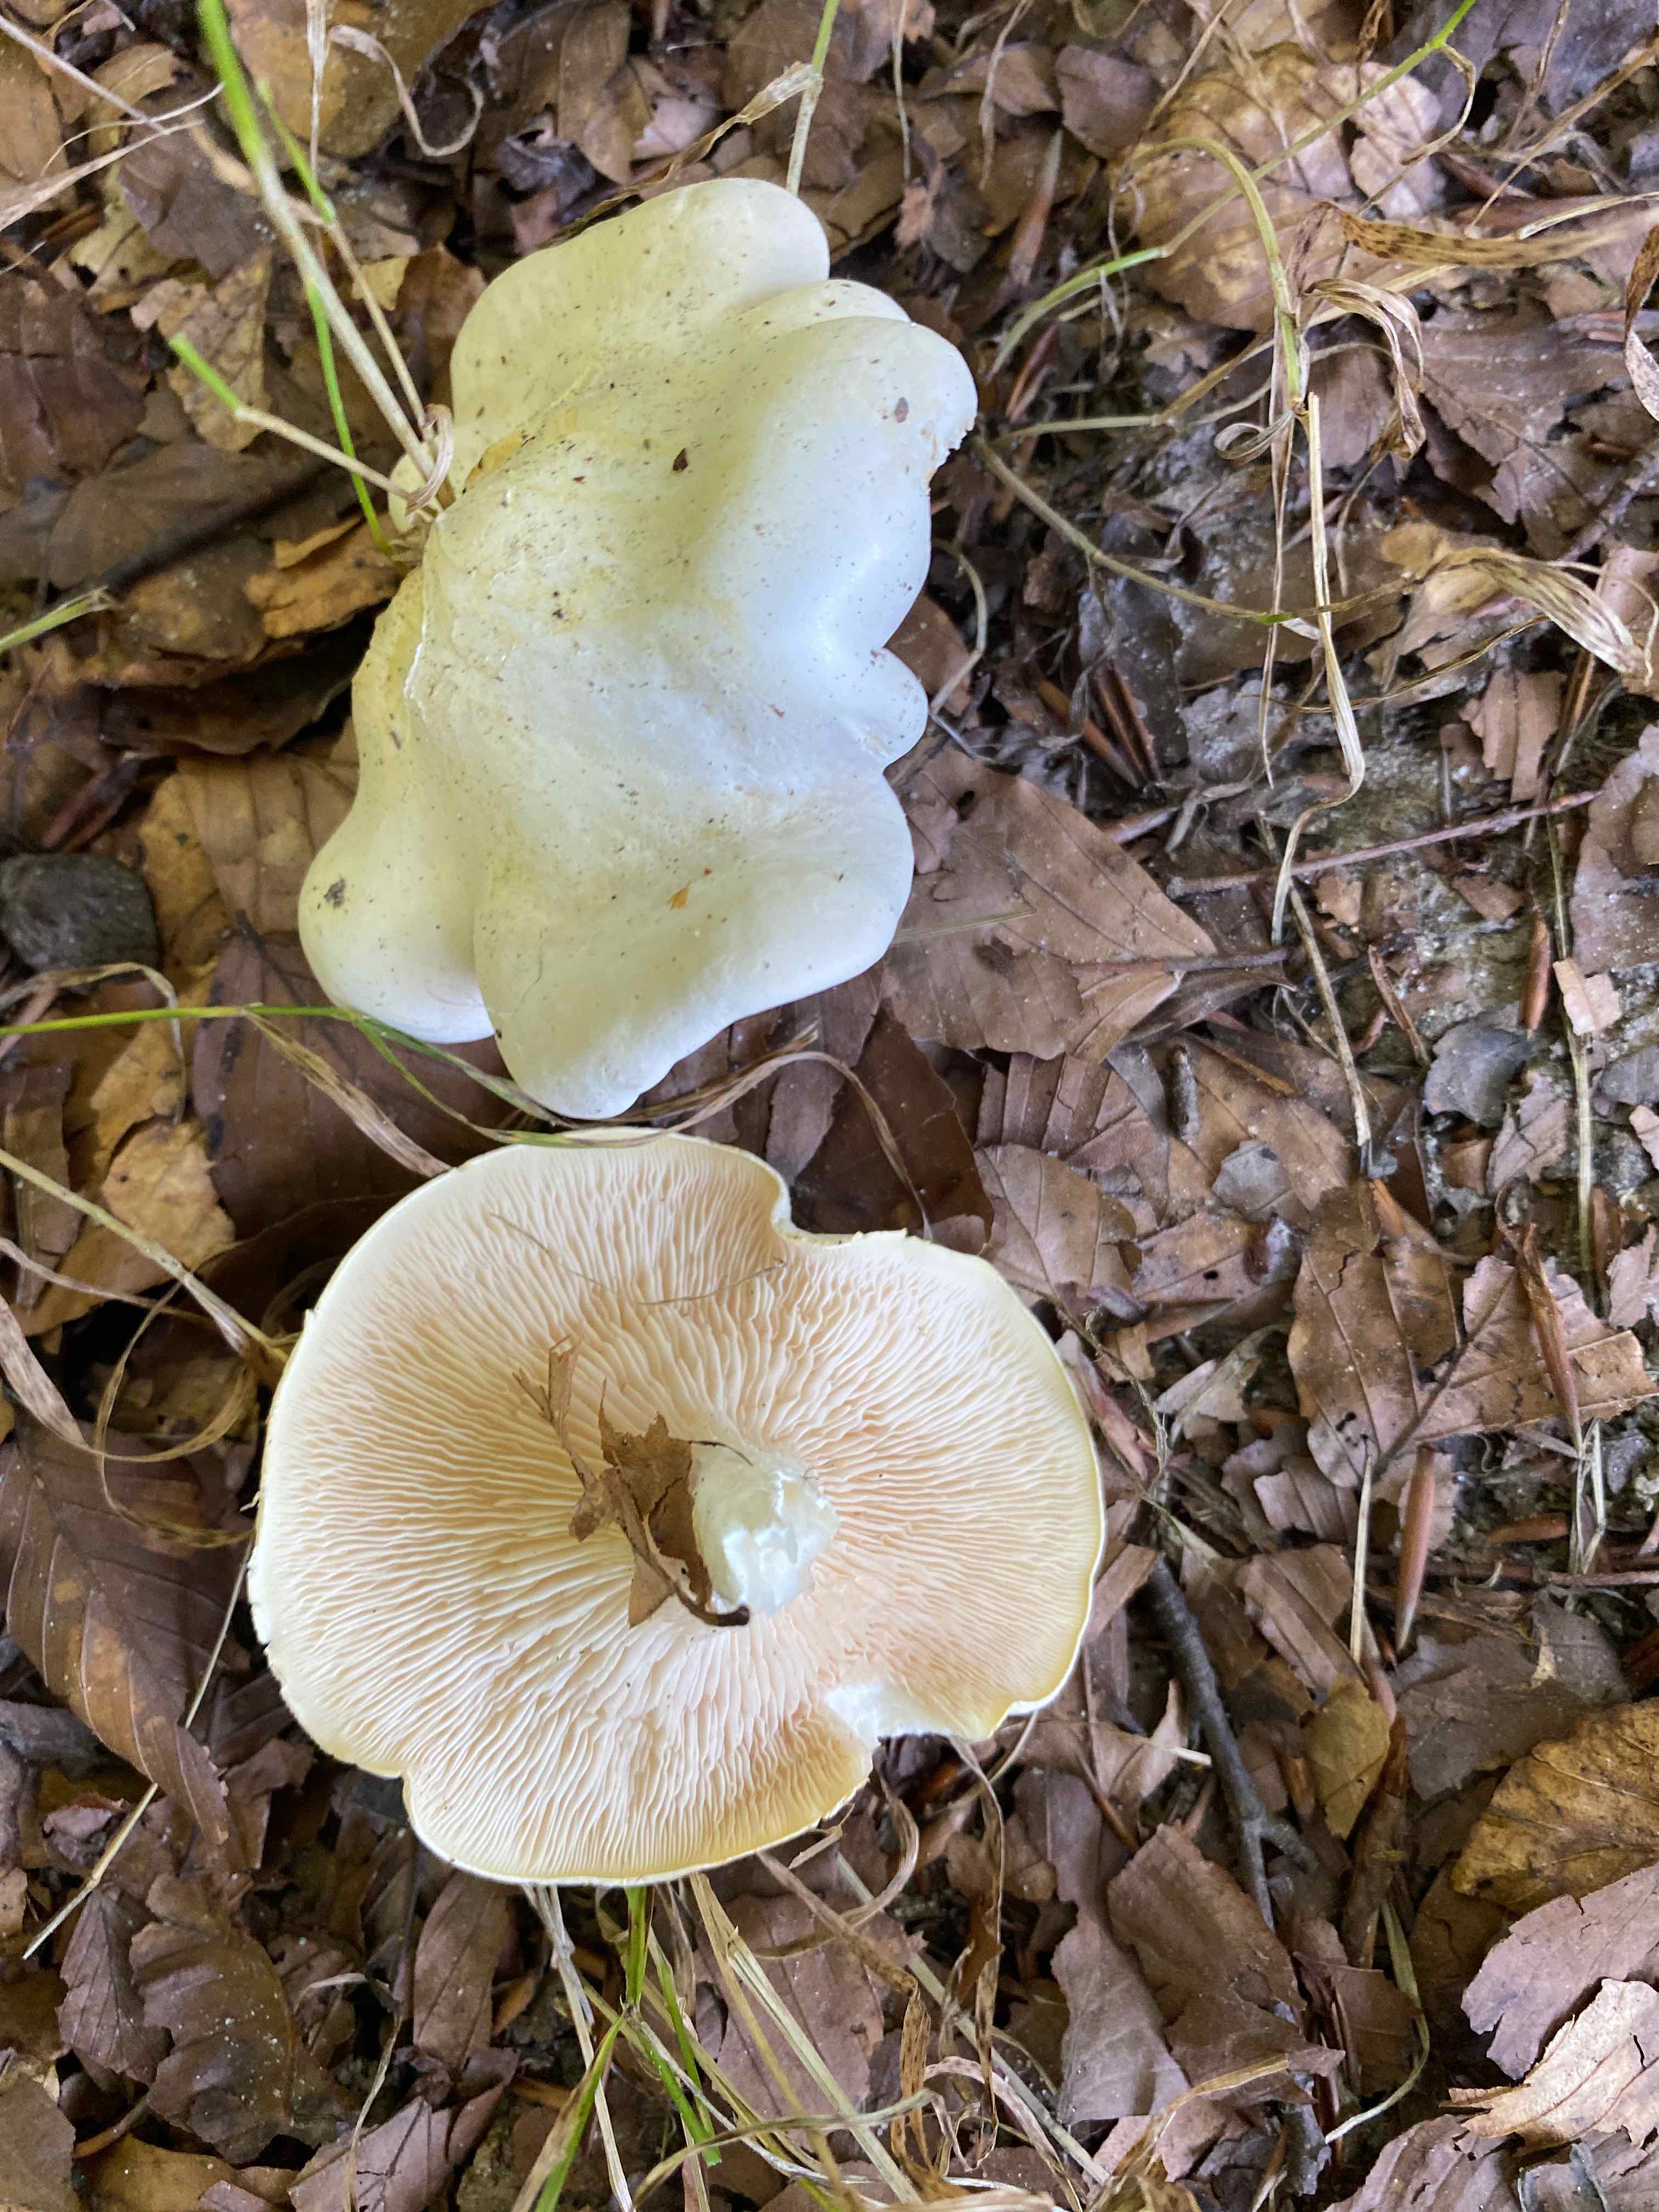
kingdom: Fungi
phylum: Basidiomycota
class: Agaricomycetes
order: Agaricales
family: Entolomataceae
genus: Clitopilus
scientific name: Clitopilus prunulus
